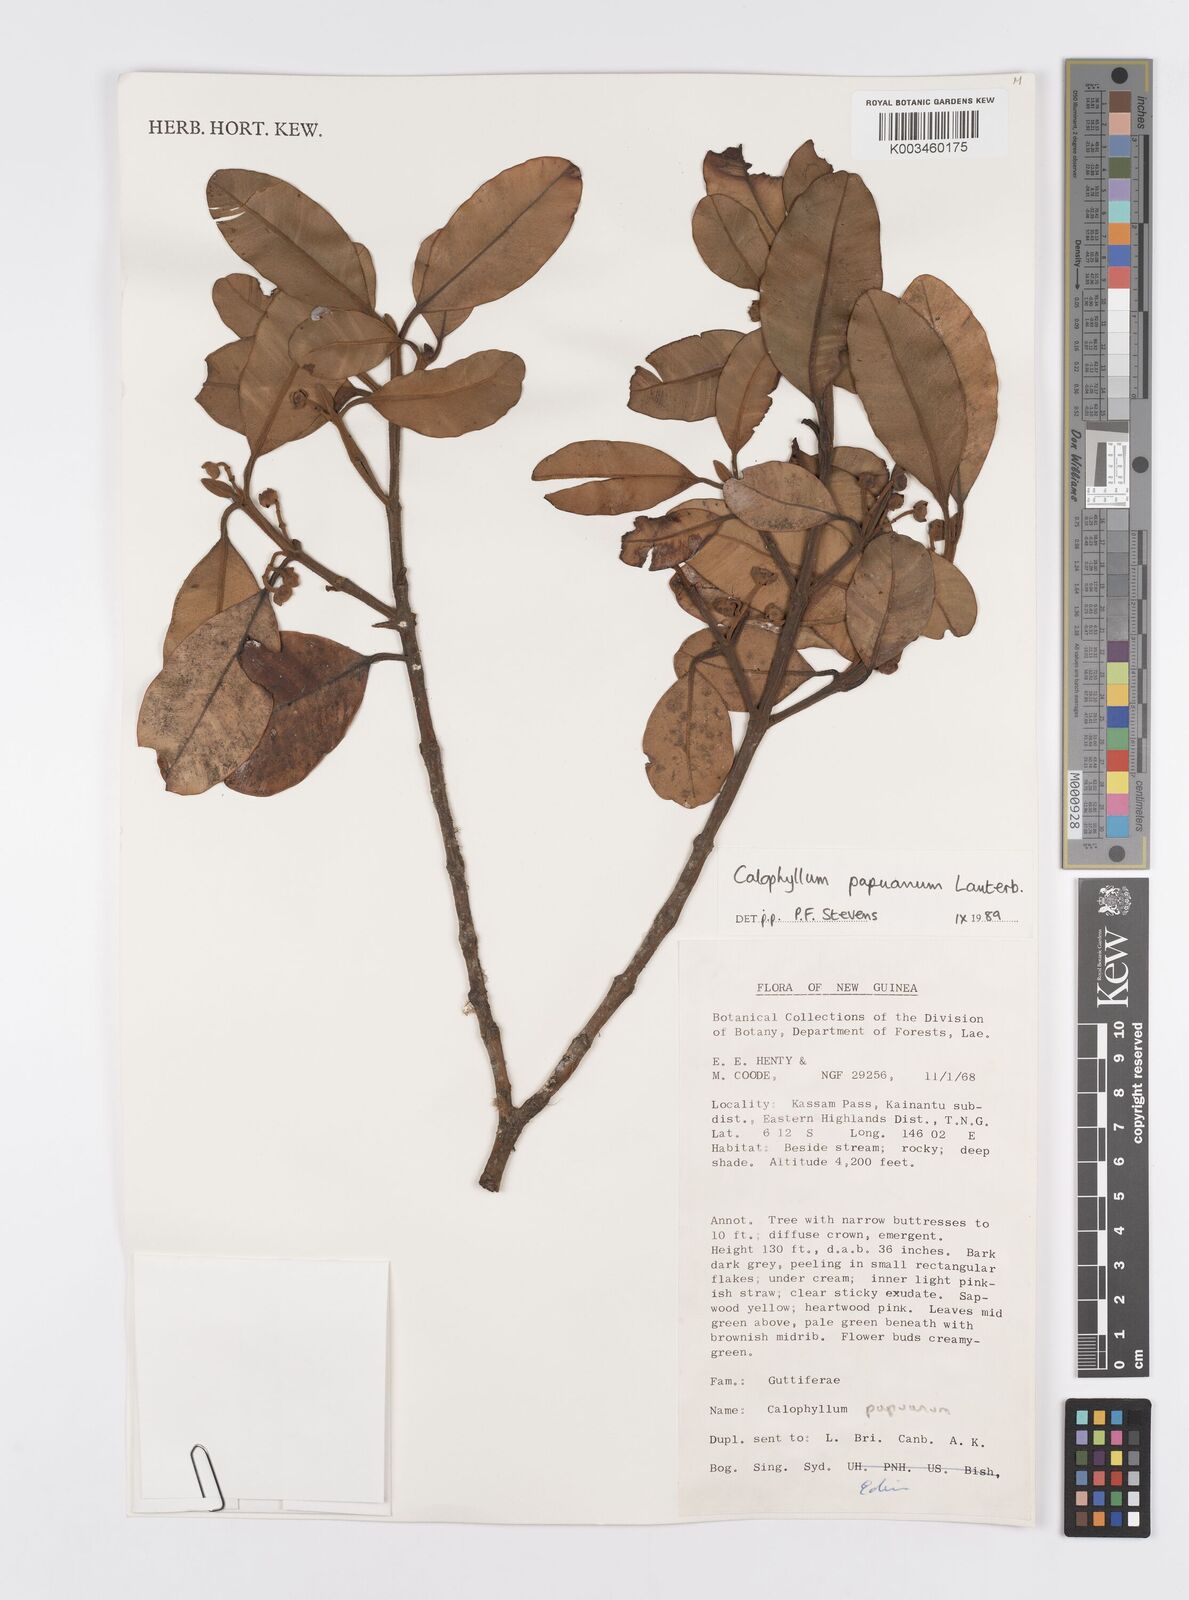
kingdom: Plantae
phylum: Tracheophyta
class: Magnoliopsida
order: Malpighiales
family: Calophyllaceae
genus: Calophyllum
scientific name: Calophyllum papuanum
